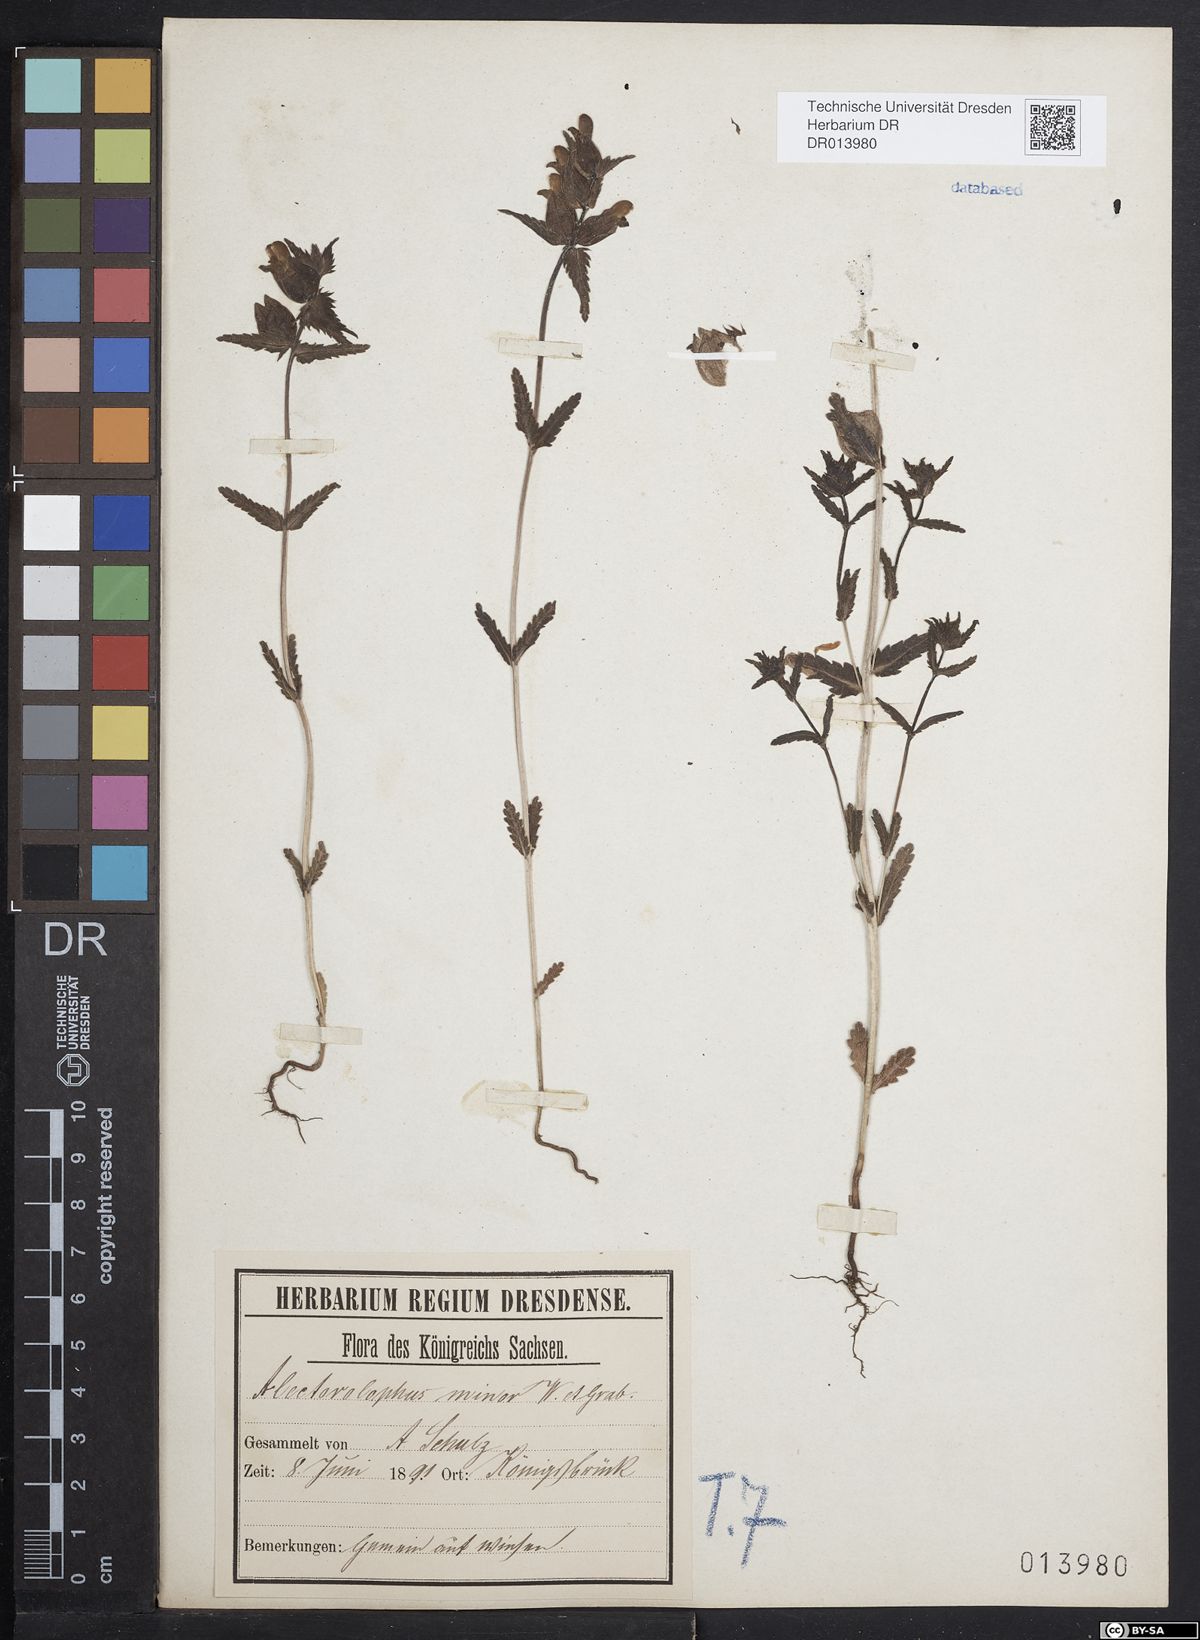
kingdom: Plantae
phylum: Tracheophyta
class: Magnoliopsida
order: Lamiales
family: Orobanchaceae
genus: Rhinanthus
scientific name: Rhinanthus minor
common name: Yellow-rattle
